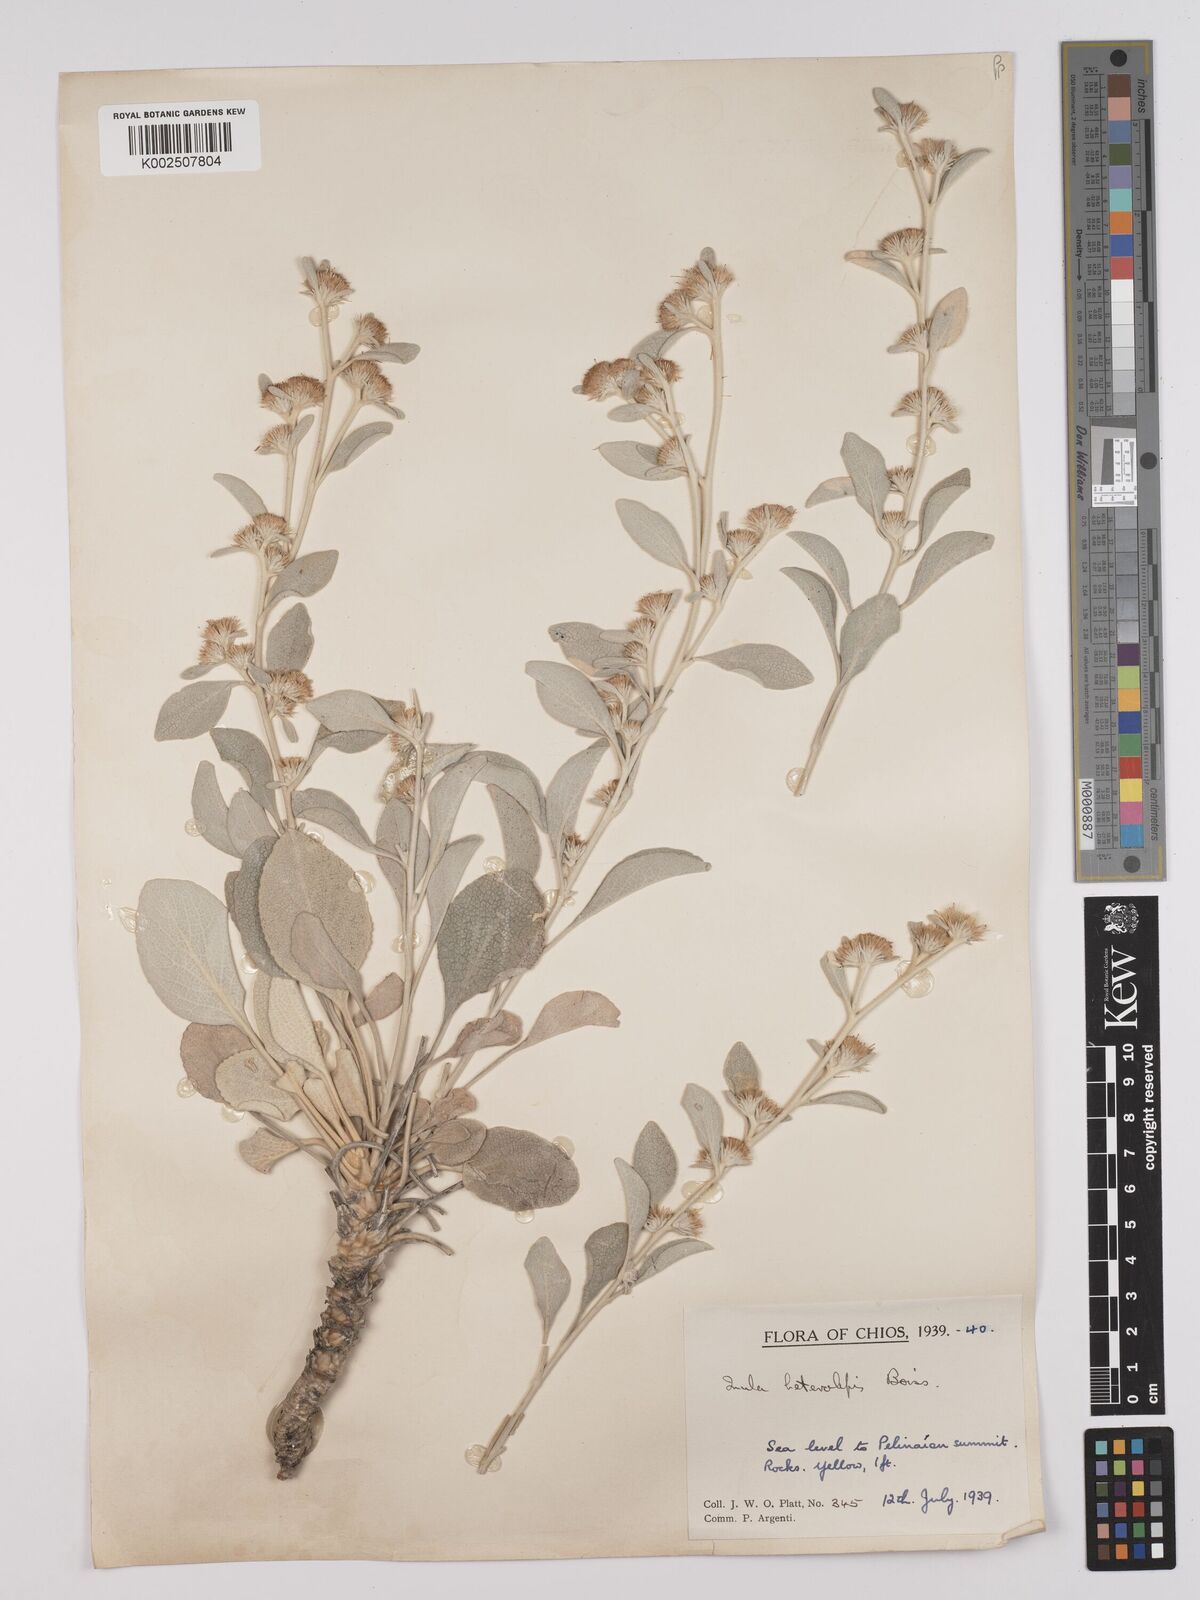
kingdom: Plantae
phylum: Tracheophyta
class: Magnoliopsida
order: Asterales
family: Asteraceae
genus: Pentanema
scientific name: Pentanema verbascifolium
